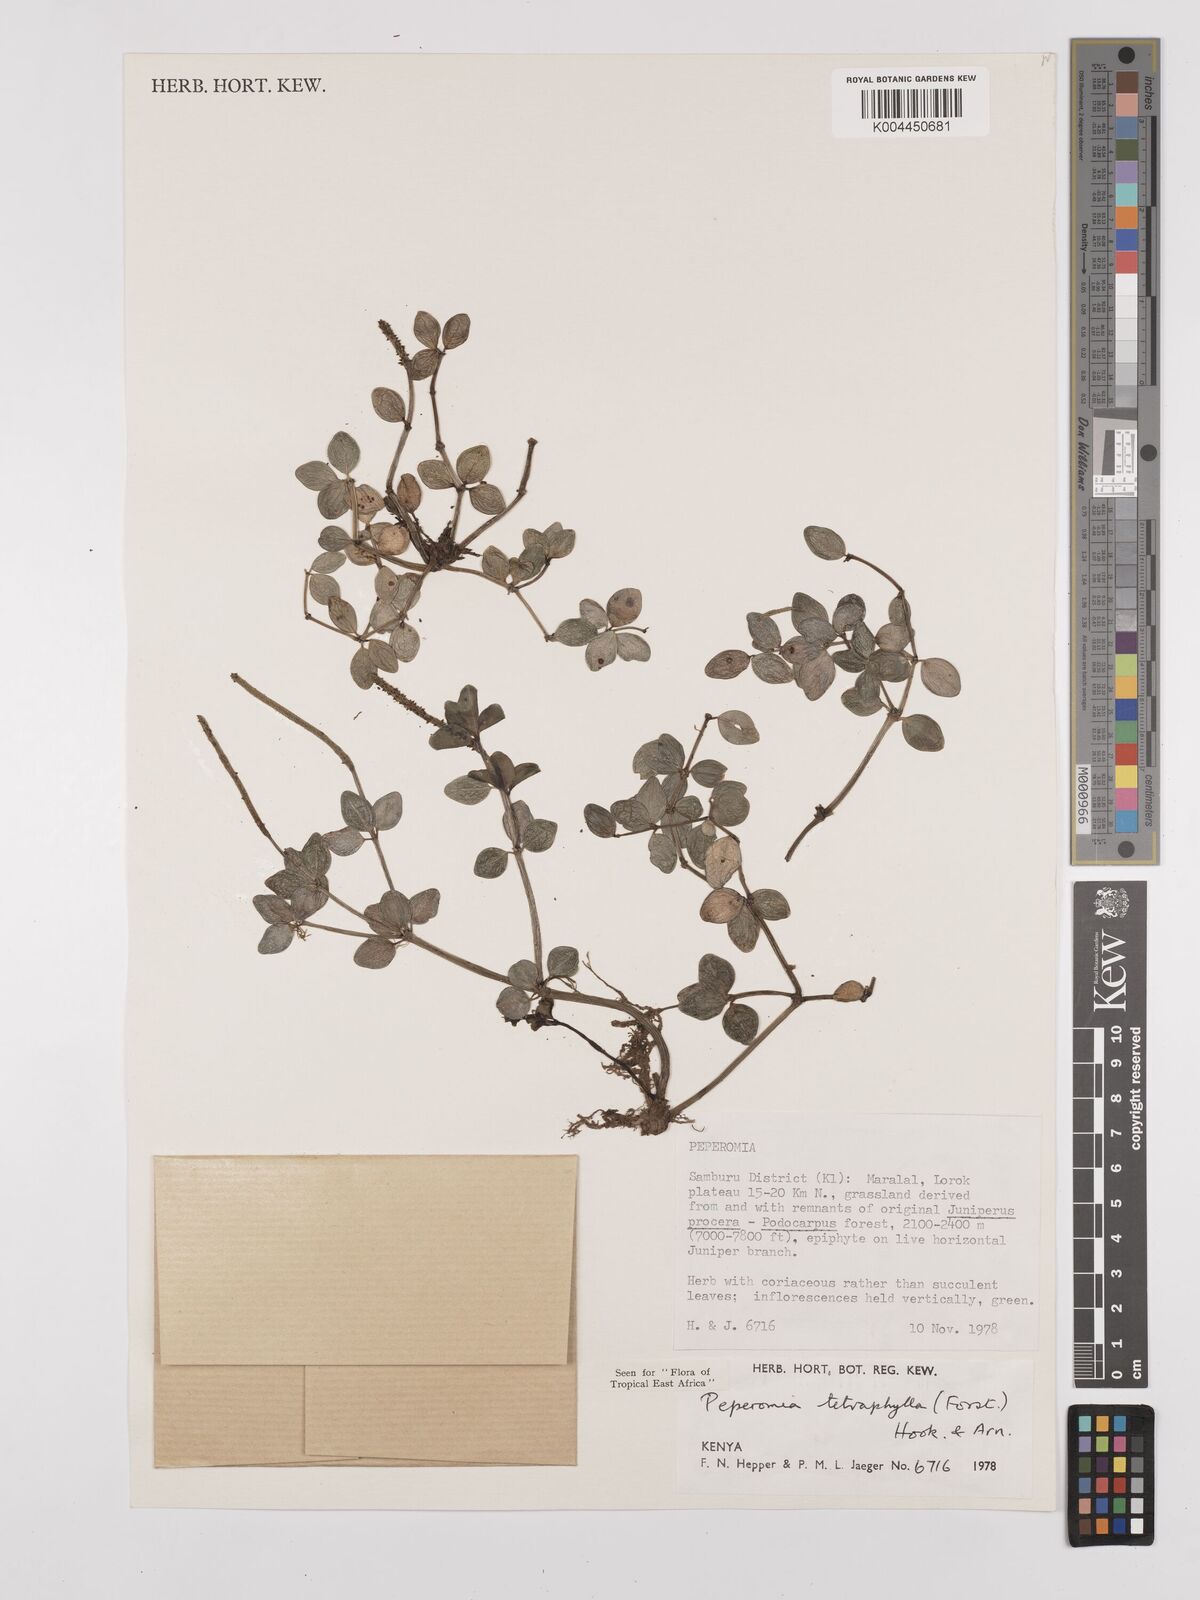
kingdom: Plantae
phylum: Tracheophyta
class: Magnoliopsida
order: Piperales
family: Piperaceae
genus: Peperomia
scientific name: Peperomia tetraphylla
